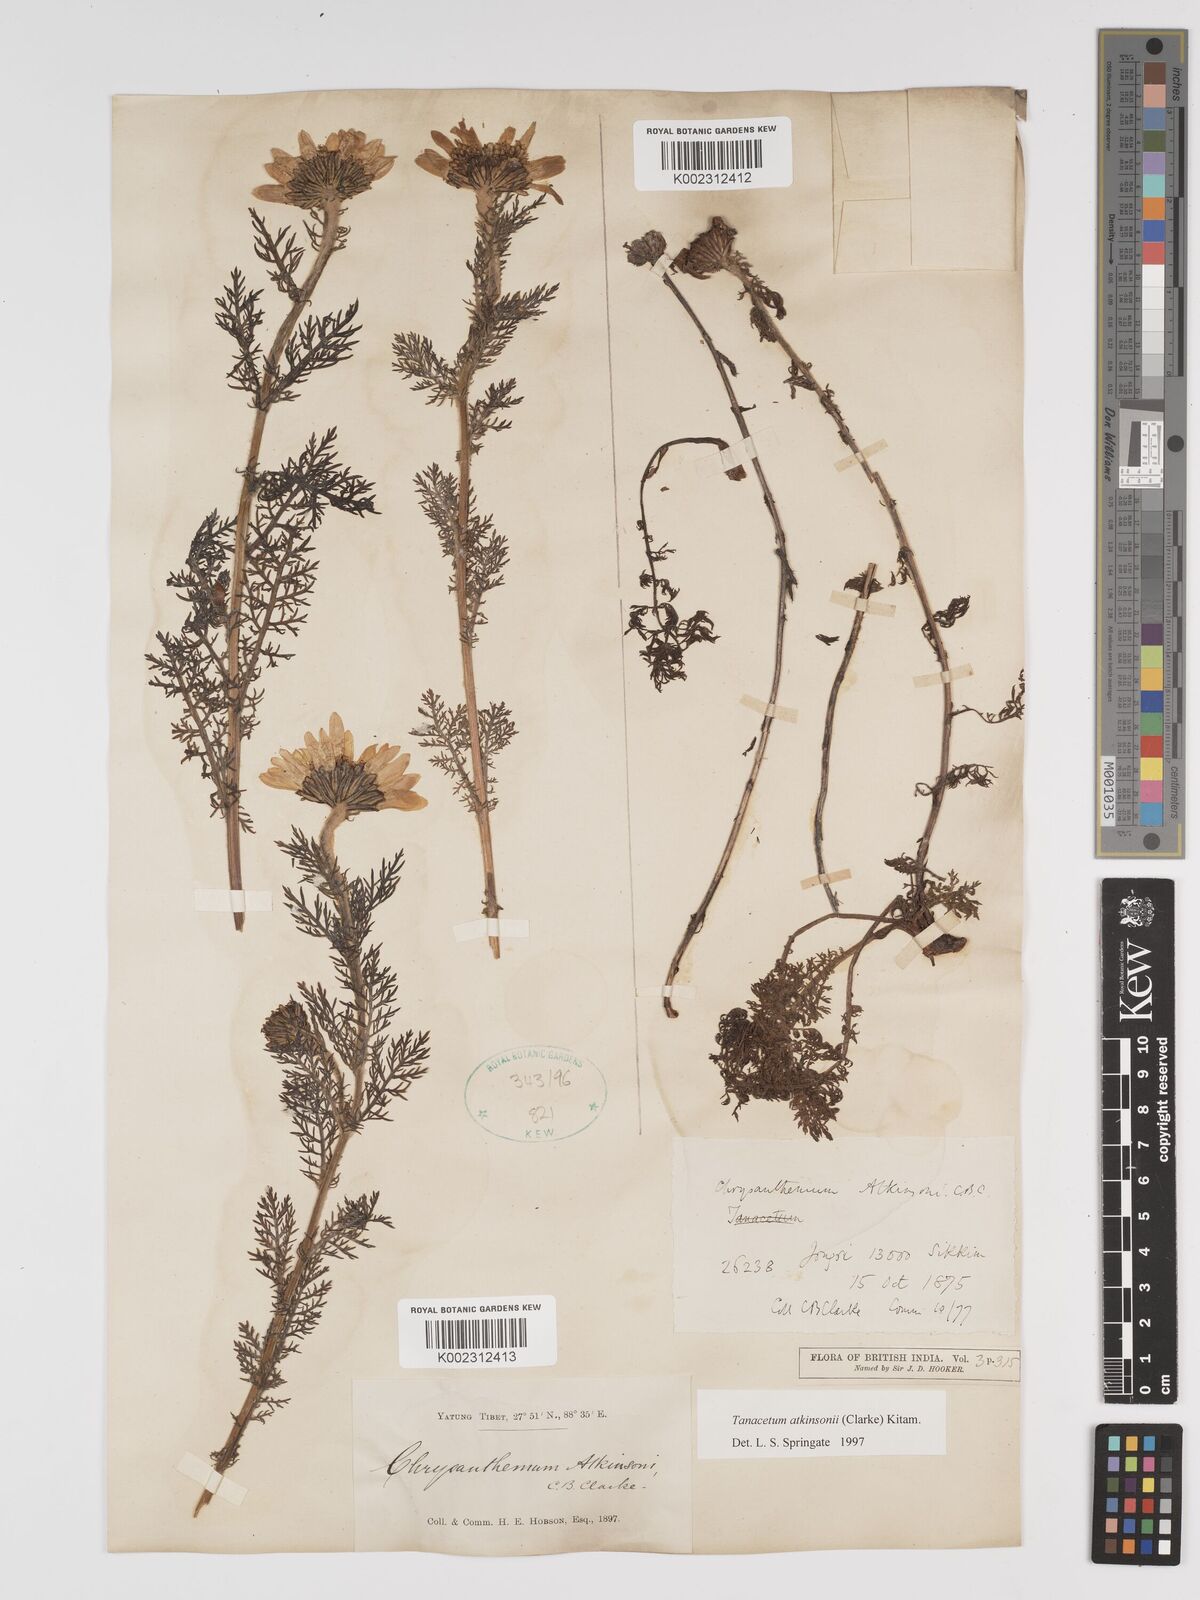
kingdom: Plantae
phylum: Tracheophyta
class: Magnoliopsida
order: Asterales
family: Asteraceae
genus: Tanacetum
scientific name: Tanacetum atkinsonii
